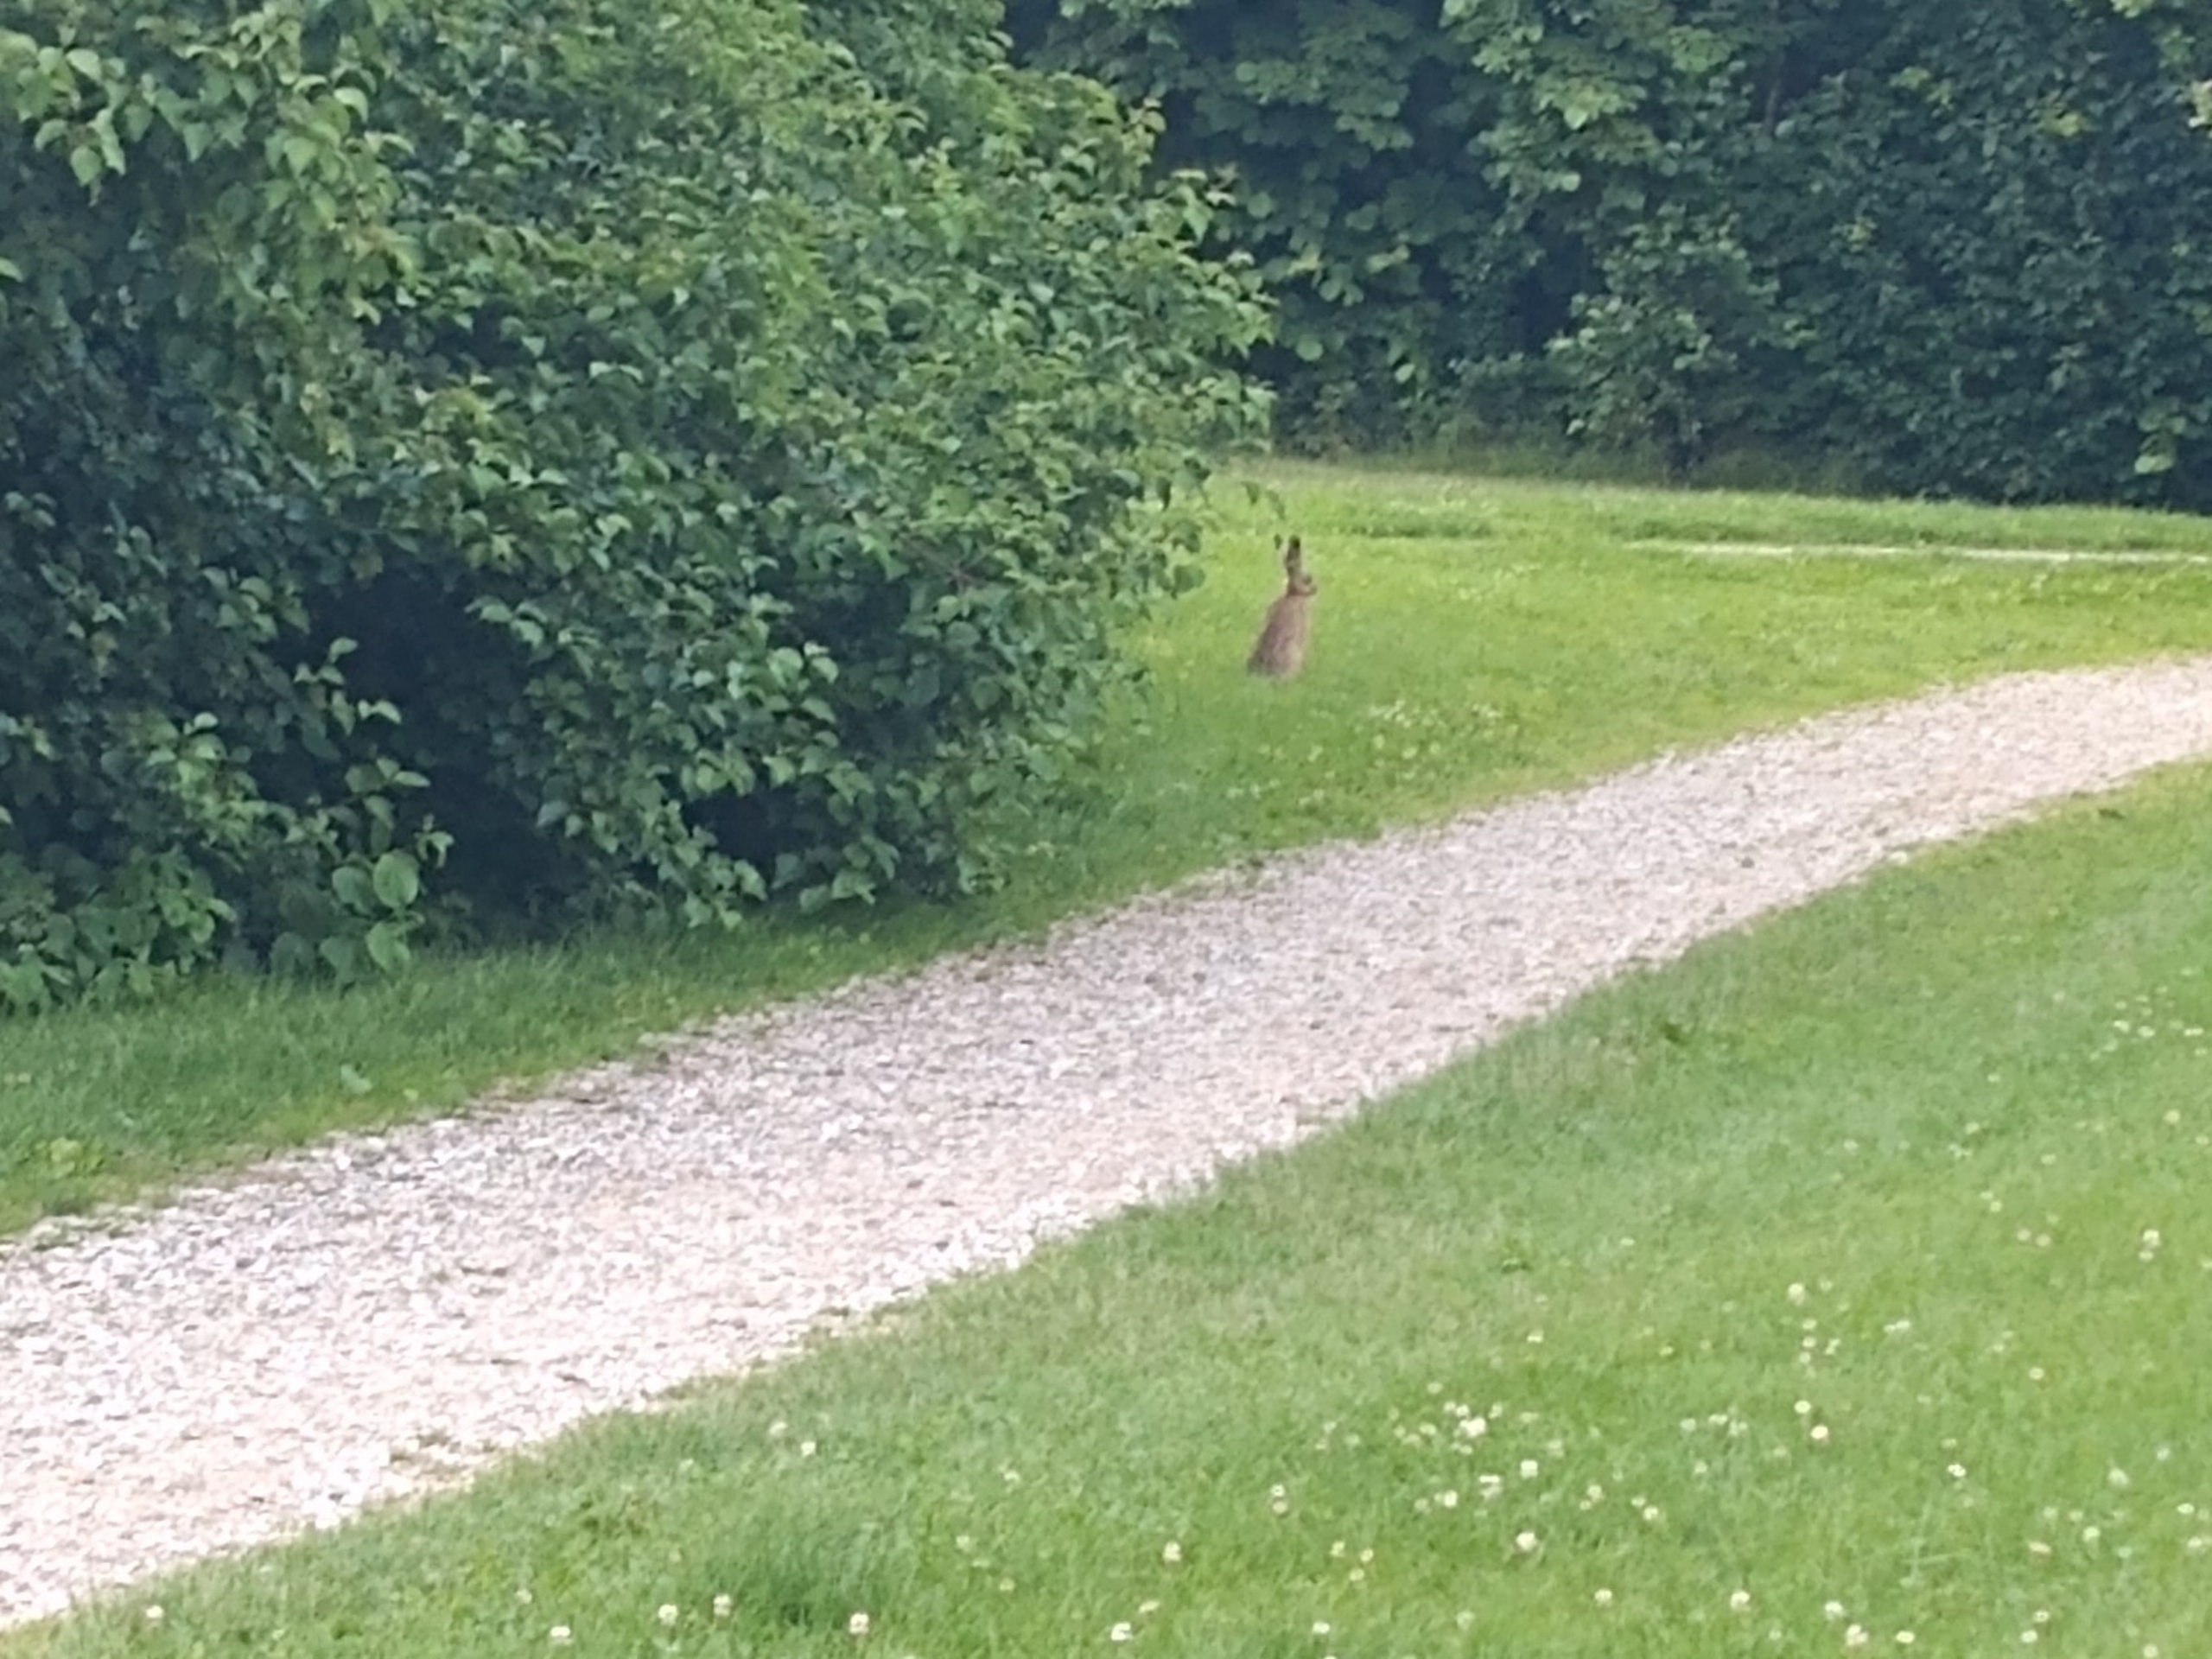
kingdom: Animalia
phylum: Chordata
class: Mammalia
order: Lagomorpha
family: Leporidae
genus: Lepus
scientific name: Lepus europaeus
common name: Hare
